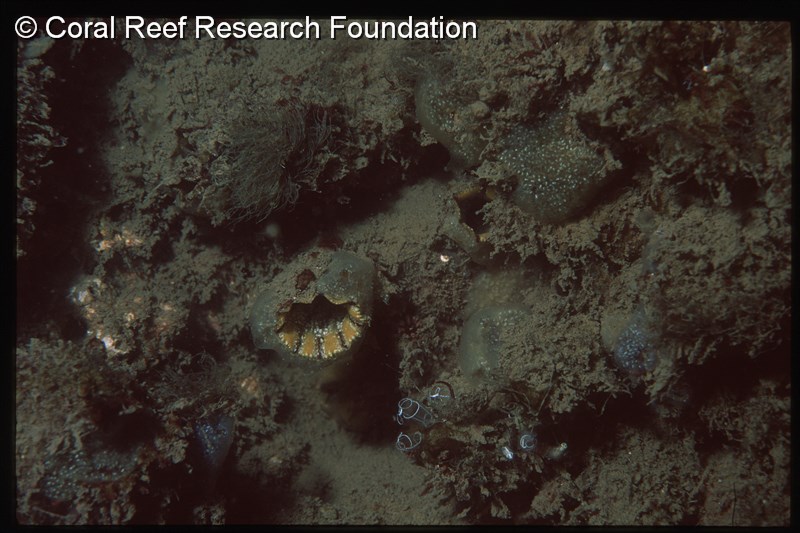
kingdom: Animalia
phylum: Chordata
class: Ascidiacea
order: Stolidobranchia
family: Pyuridae
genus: Pyura
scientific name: Pyura
